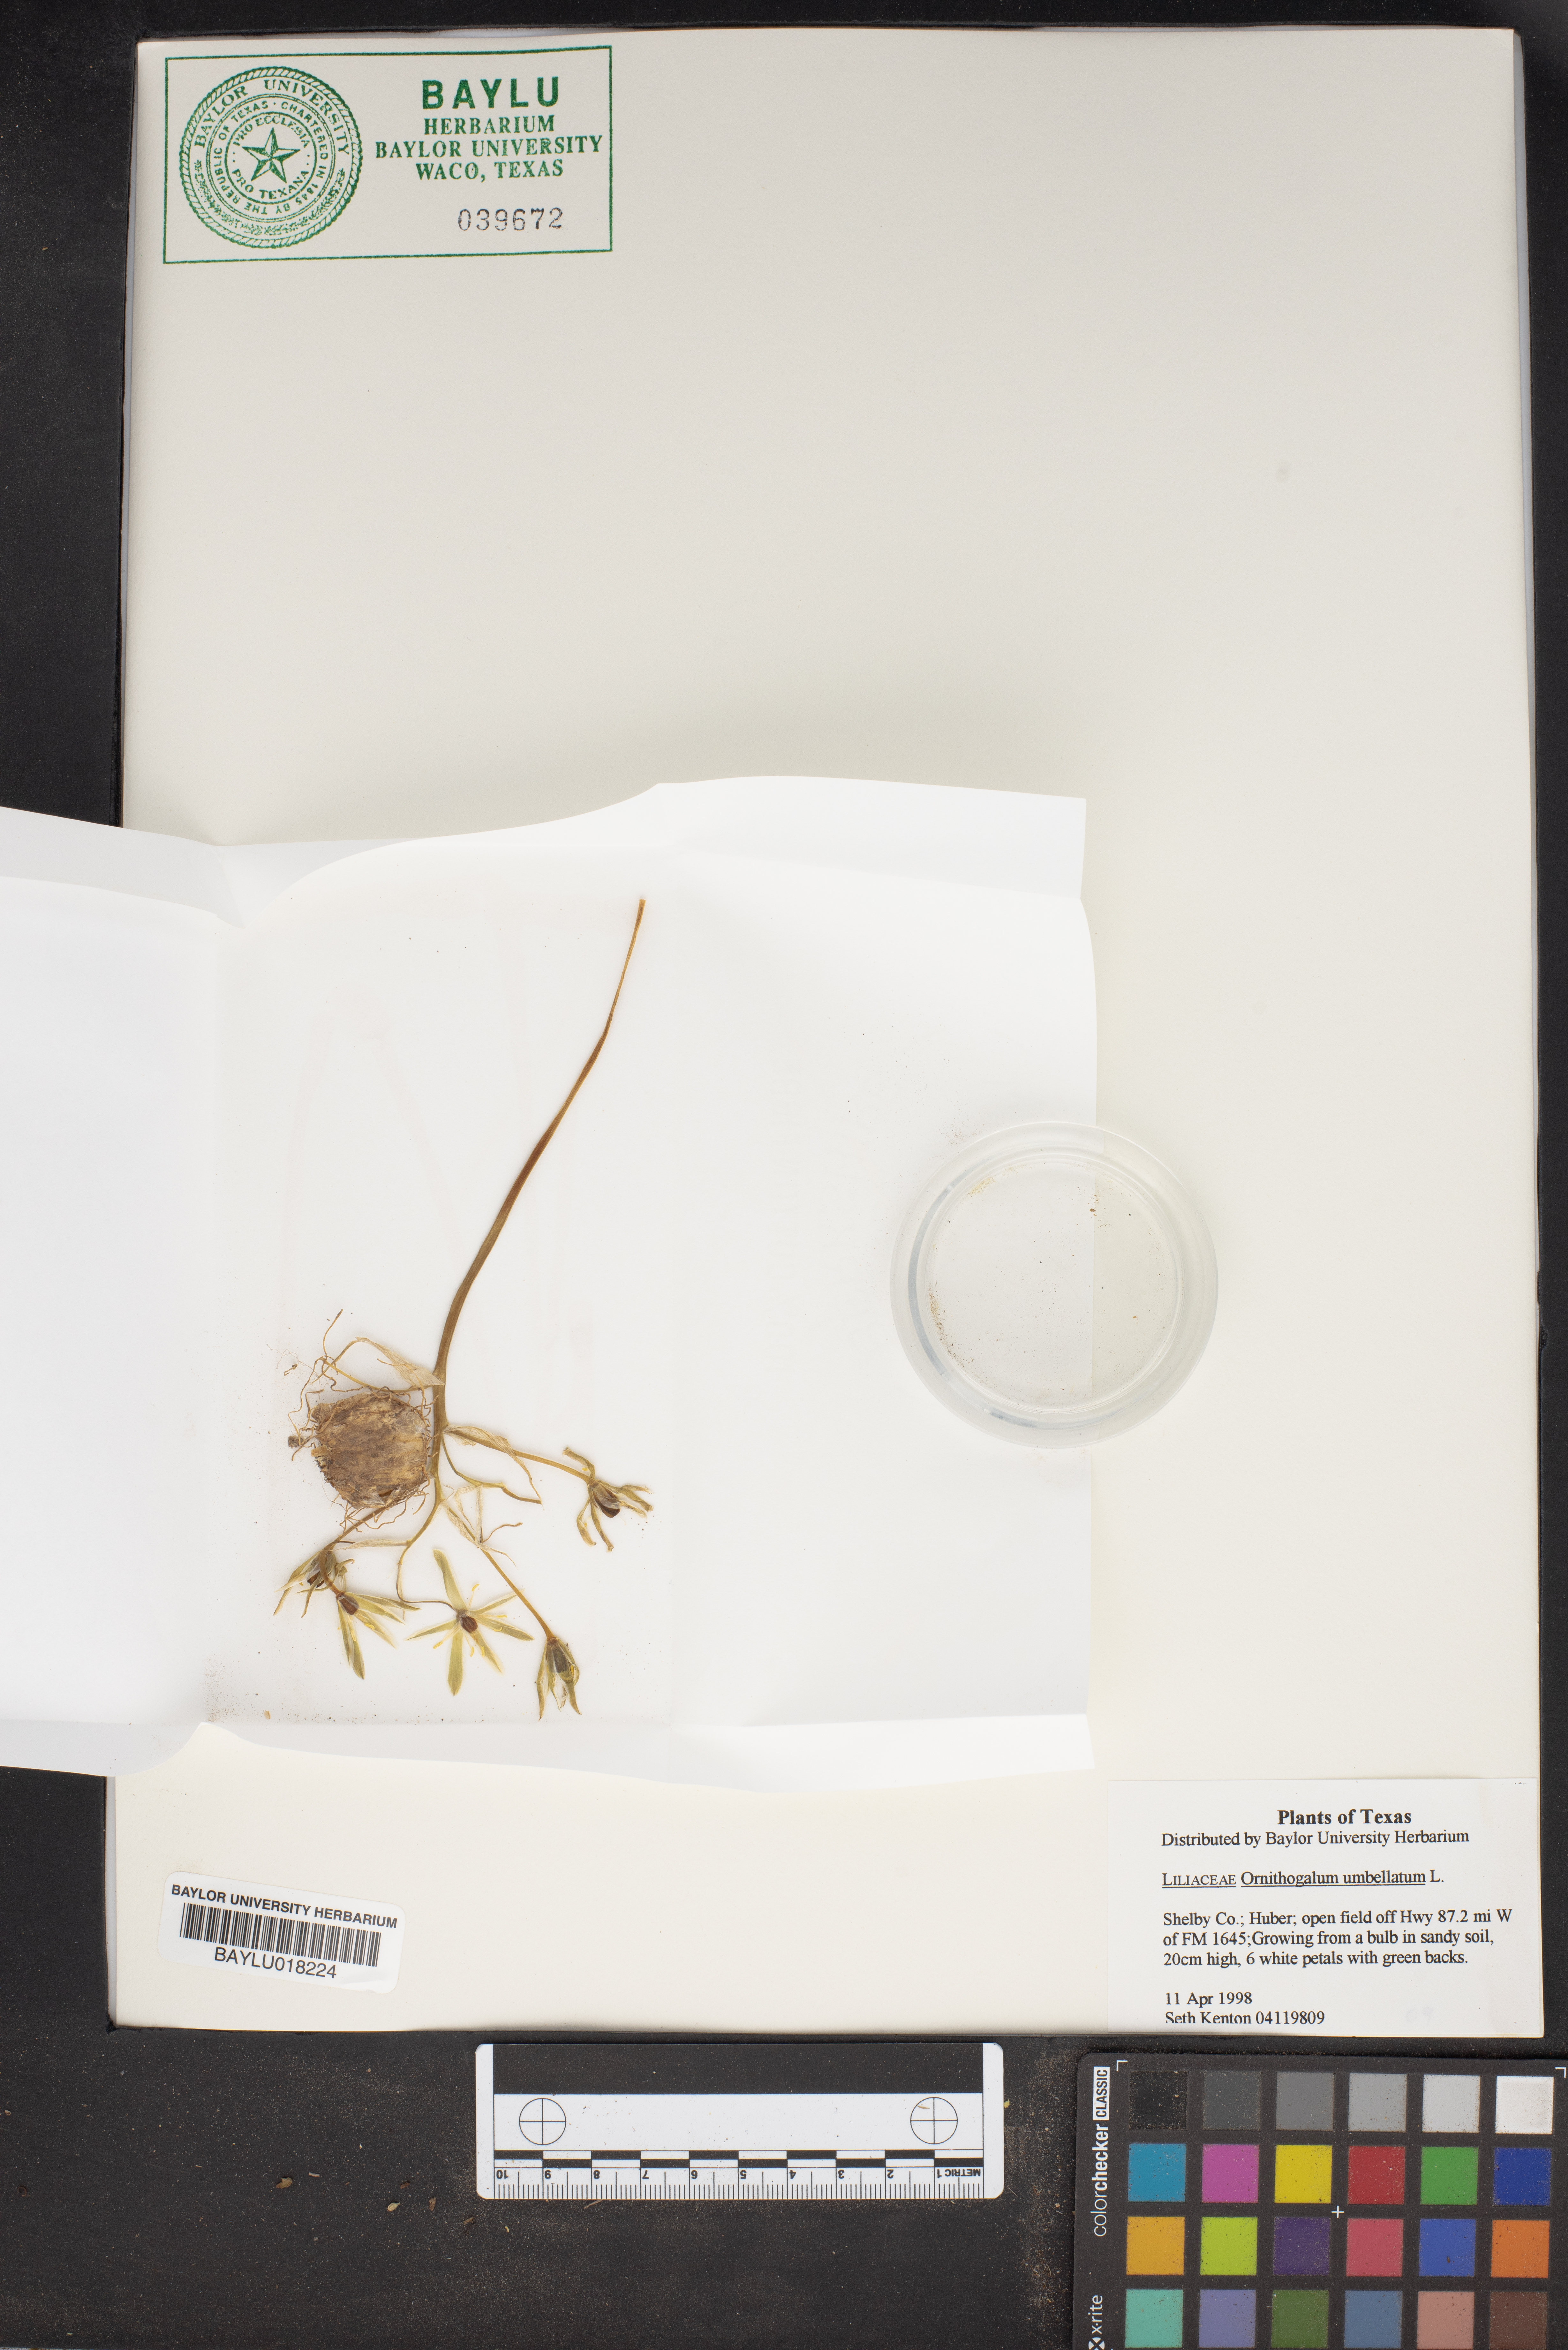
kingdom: Plantae
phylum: Tracheophyta
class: Liliopsida
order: Asparagales
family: Asparagaceae
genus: Ornithogalum
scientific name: Ornithogalum umbellatum
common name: Garden star-of-bethlehem
